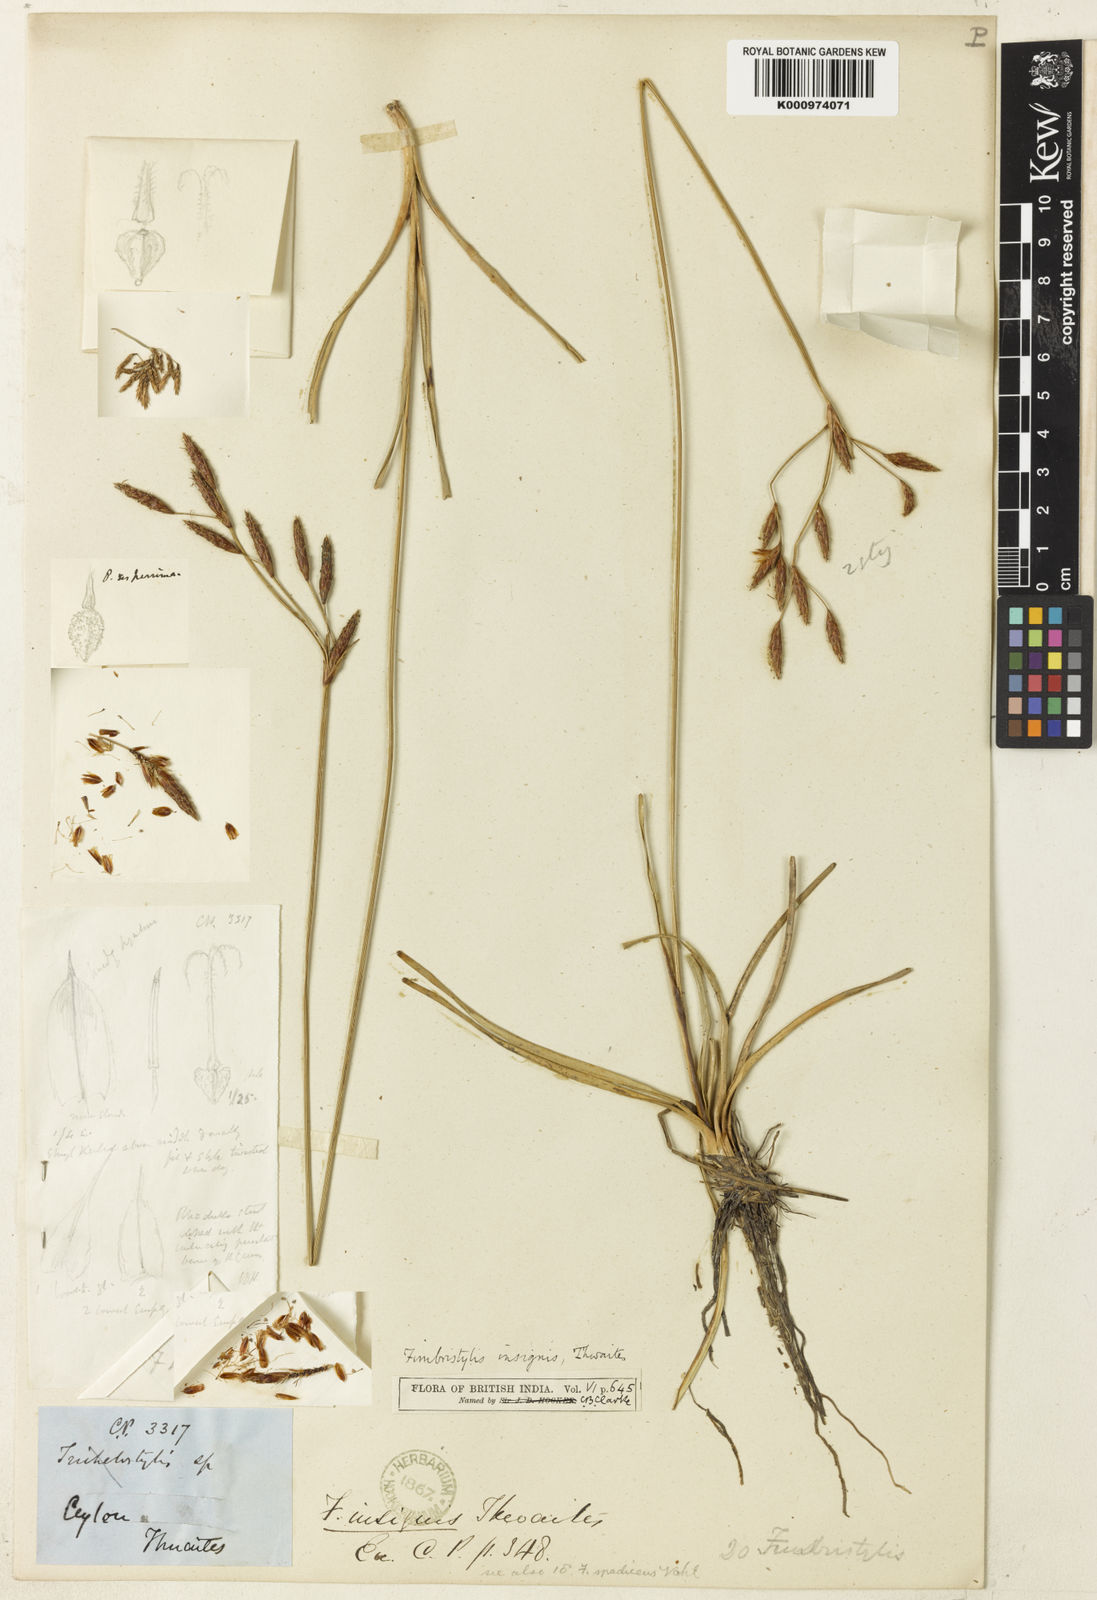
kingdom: Plantae
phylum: Tracheophyta
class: Liliopsida
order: Poales
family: Cyperaceae
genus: Fimbristylis
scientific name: Fimbristylis insignis
